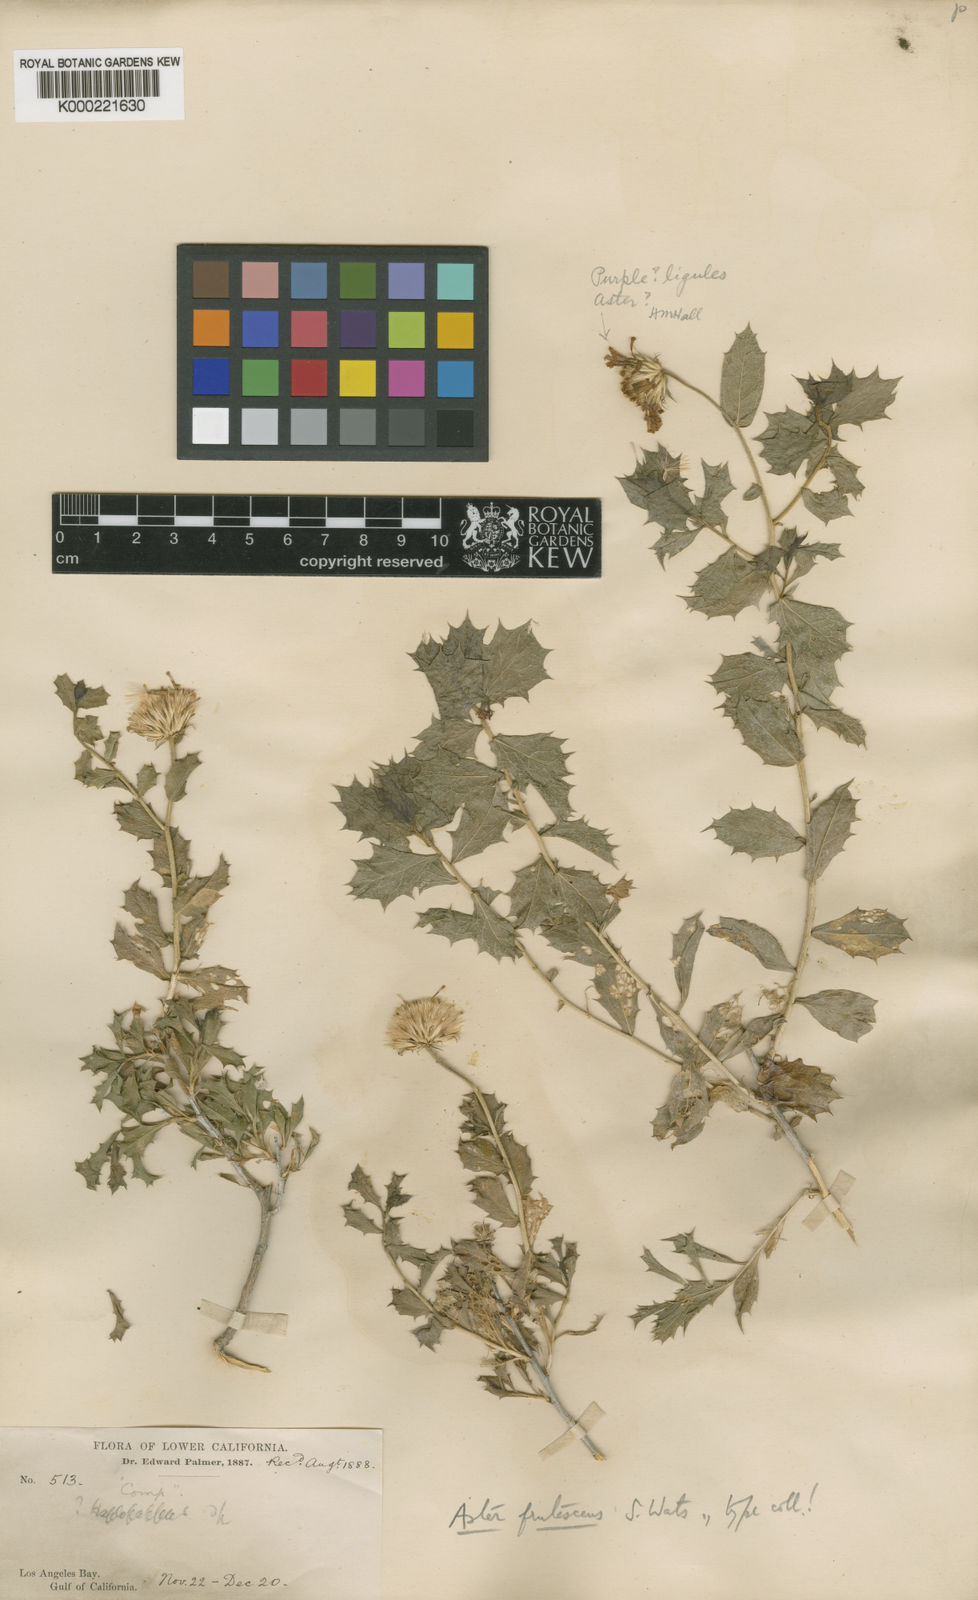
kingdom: Plantae
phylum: Tracheophyta
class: Magnoliopsida
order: Asterales
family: Asteraceae
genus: Xylorhiza
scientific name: Xylorhiza frutescens
